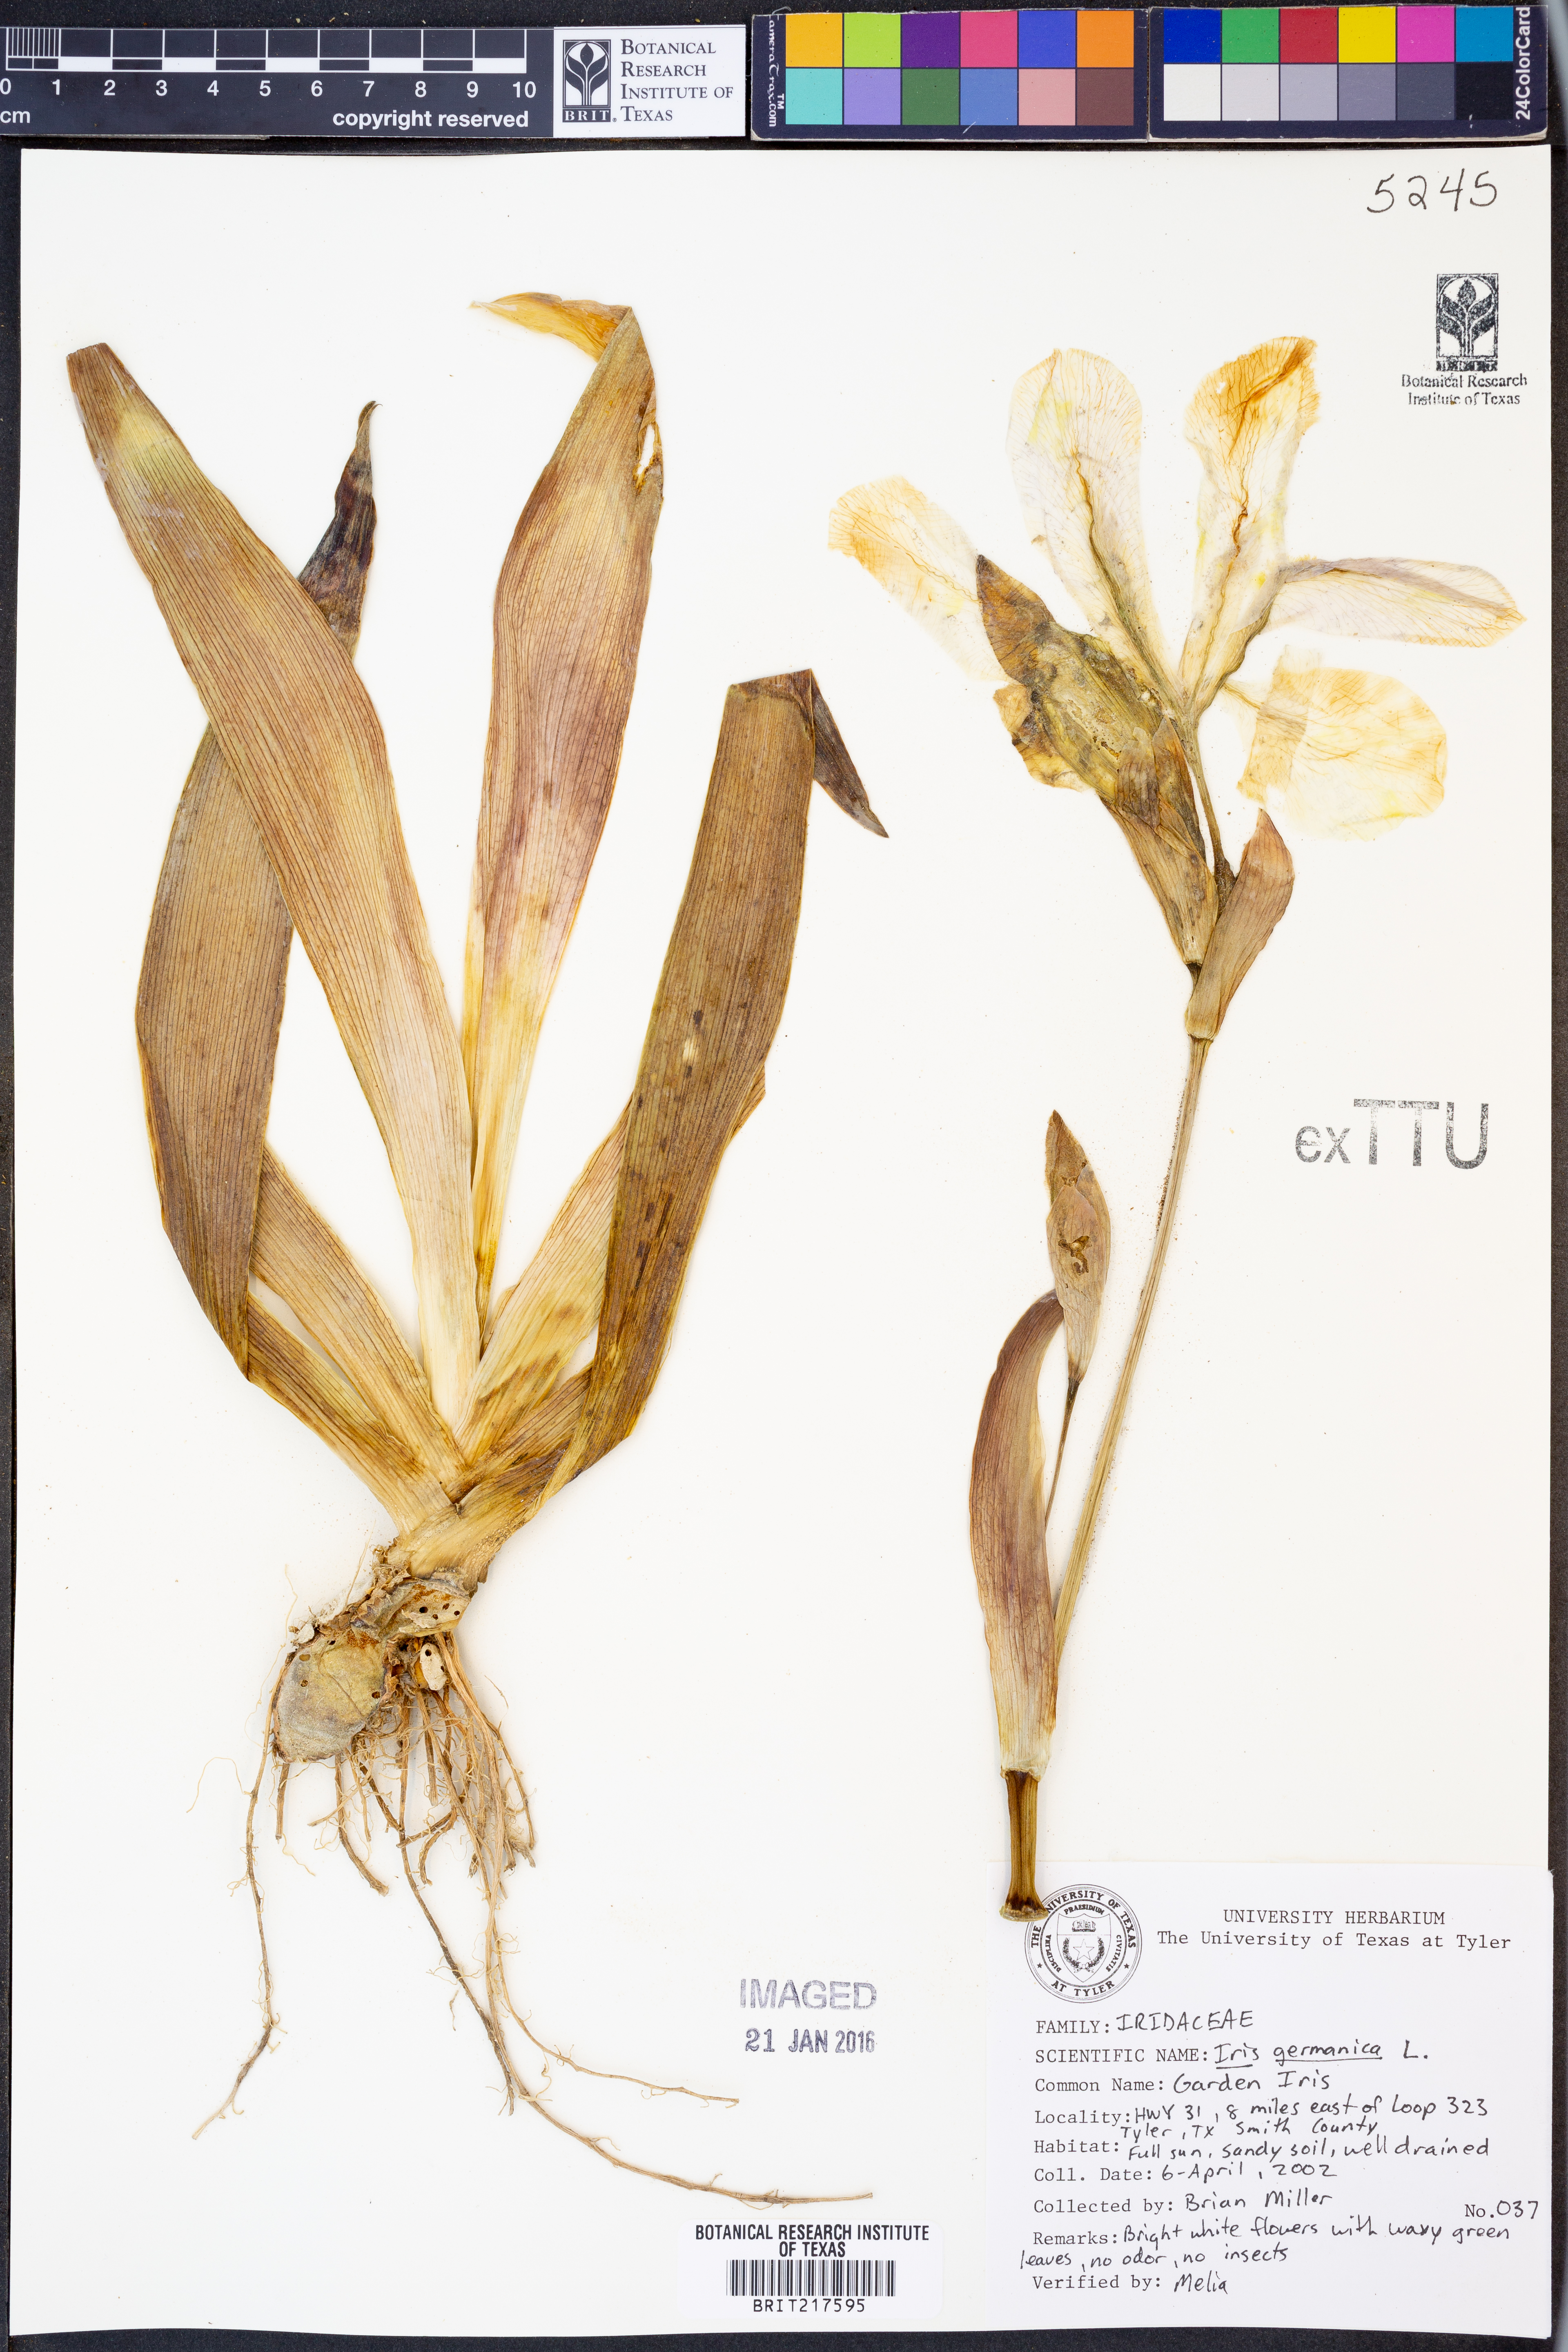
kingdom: Plantae
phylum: Tracheophyta
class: Liliopsida
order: Asparagales
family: Iridaceae
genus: Iris
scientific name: Iris germanica
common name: German iris
